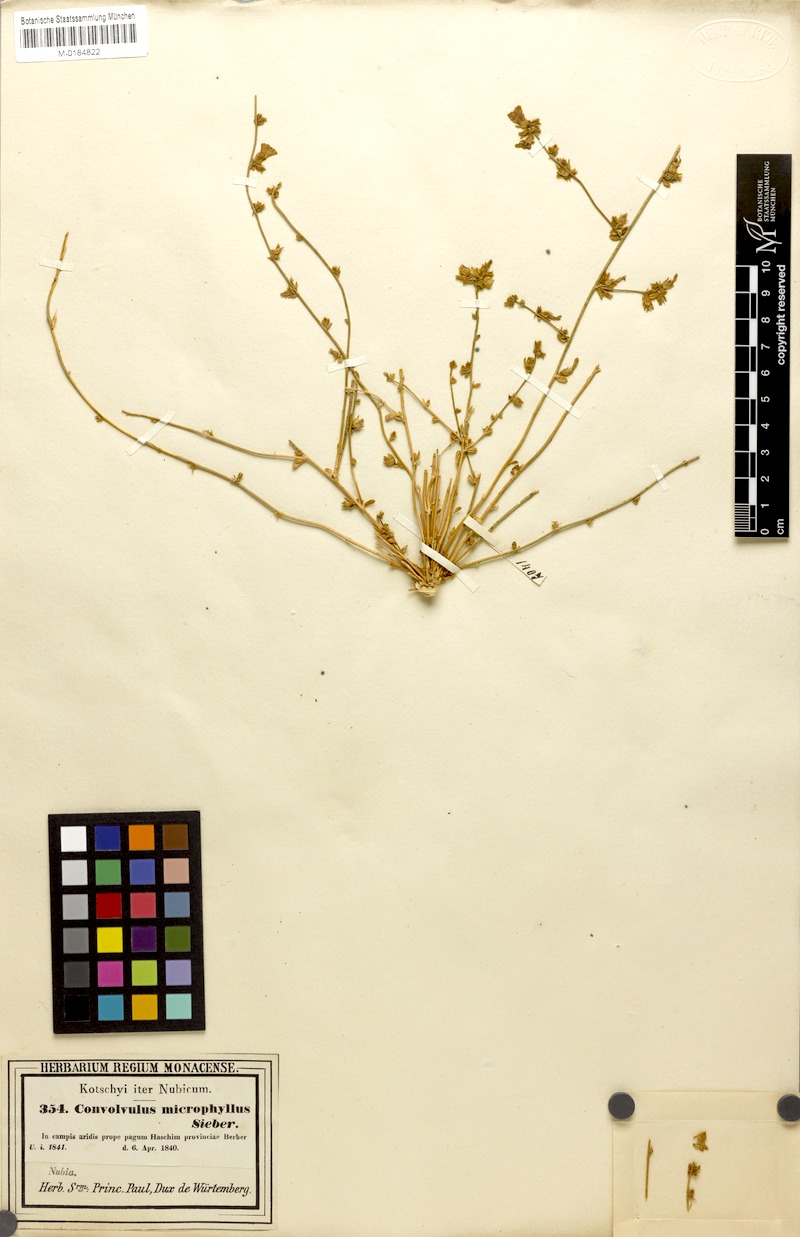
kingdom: Plantae
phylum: Tracheophyta
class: Magnoliopsida
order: Solanales
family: Convolvulaceae
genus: Convolvulus
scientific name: Convolvulus prostratus
